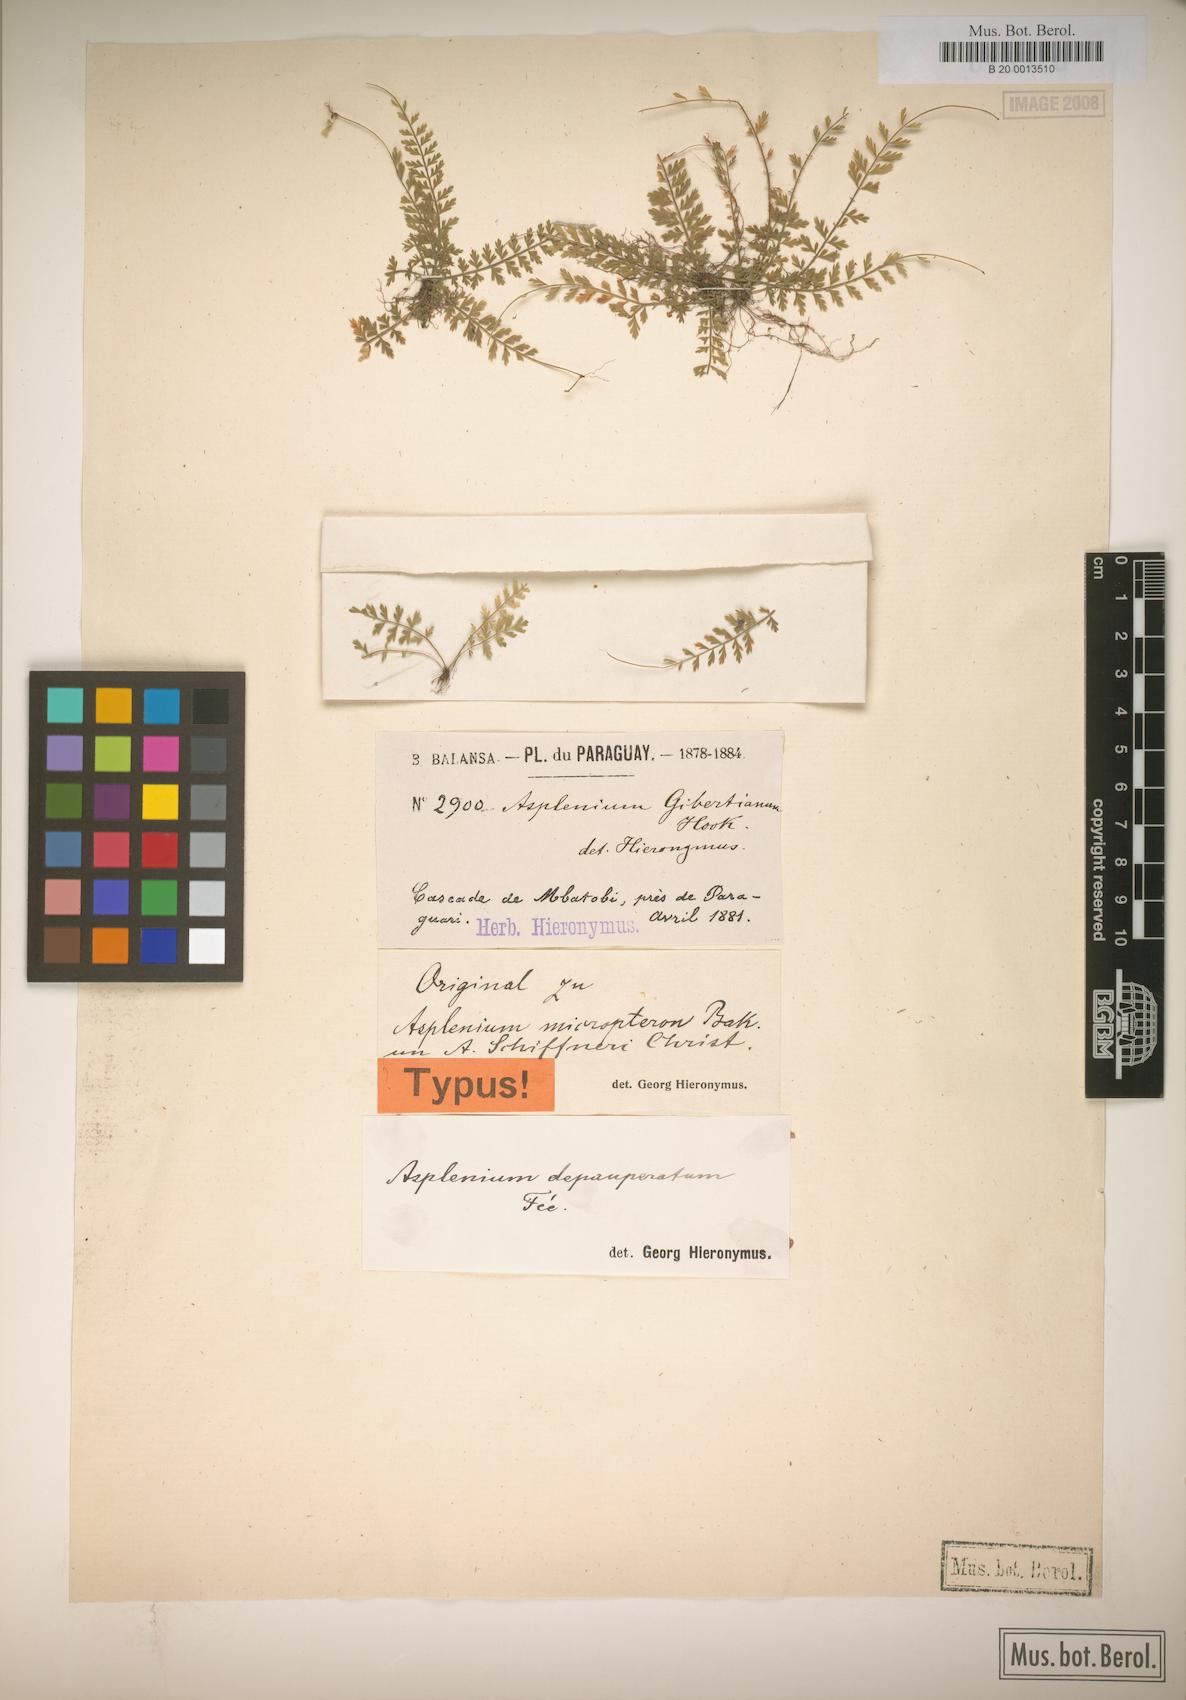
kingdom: Plantae
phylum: Tracheophyta
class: Polypodiopsida
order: Polypodiales
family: Aspleniaceae
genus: Asplenium
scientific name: Asplenium depauperatum
